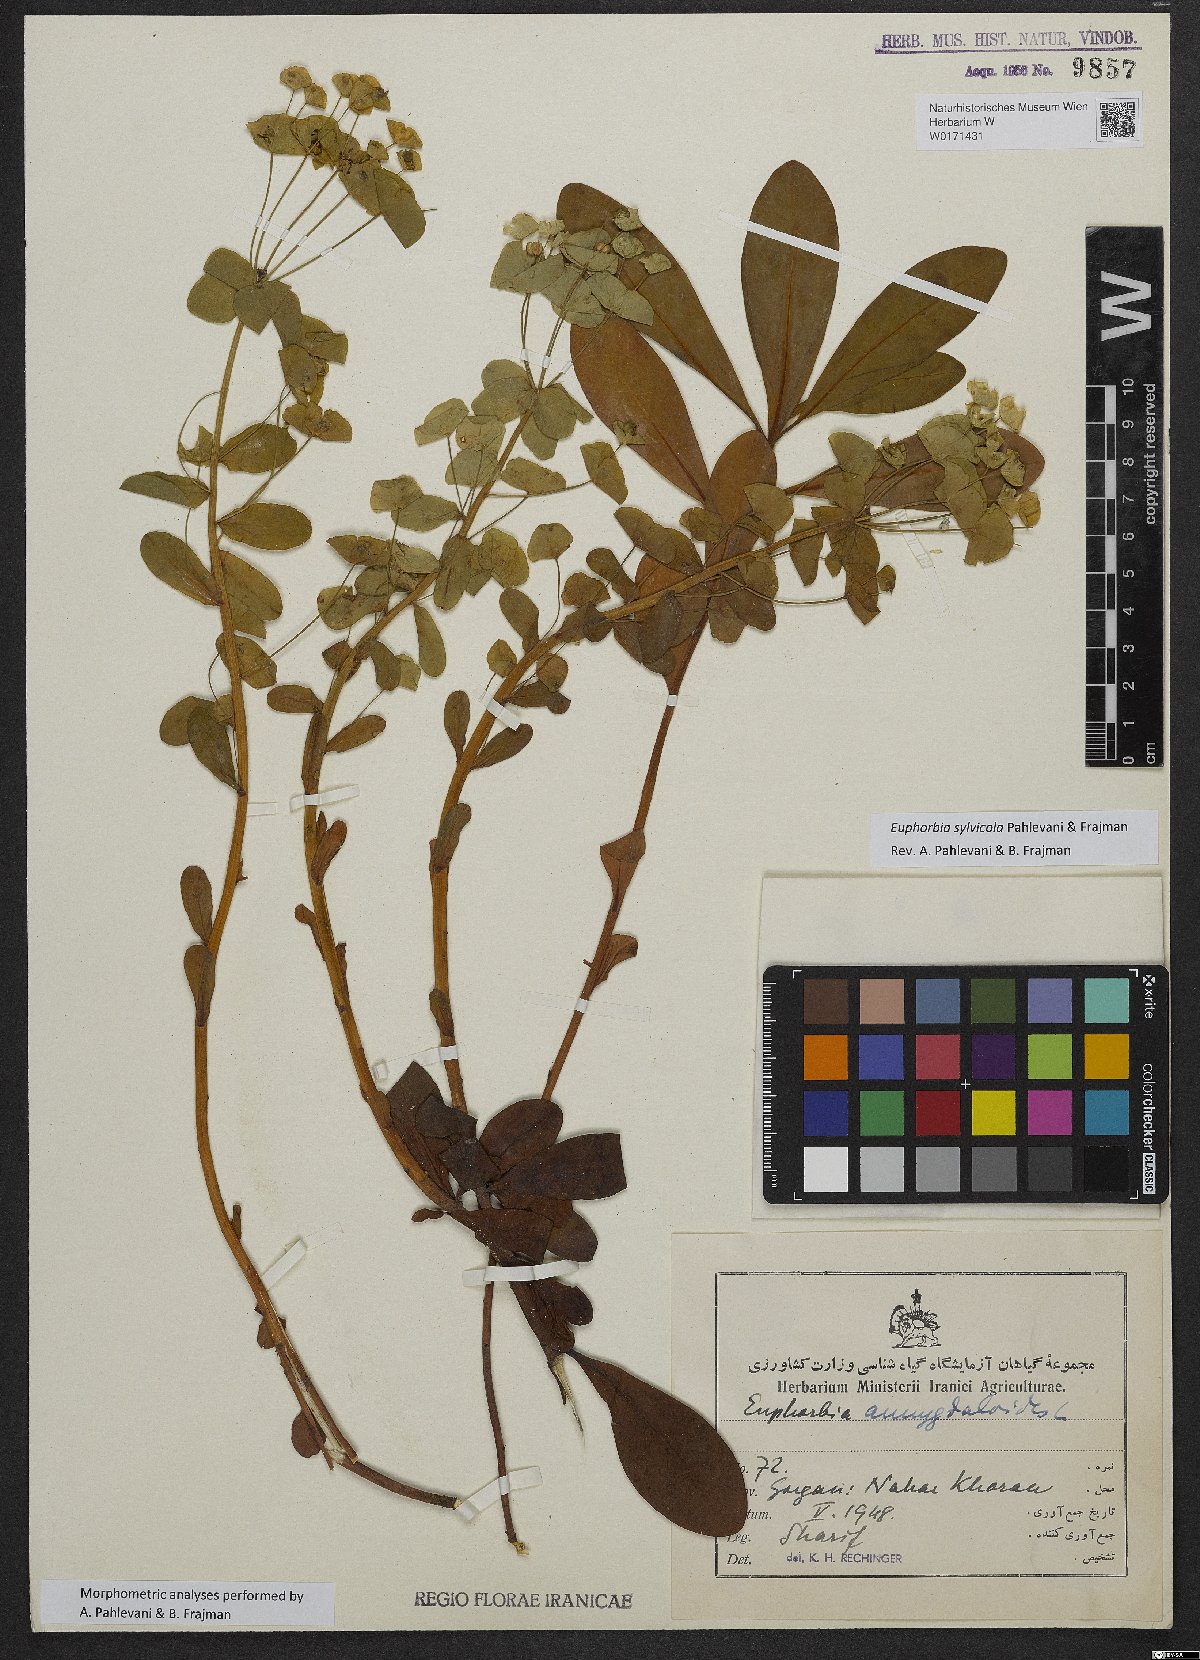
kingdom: Plantae
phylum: Tracheophyta
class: Magnoliopsida
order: Malpighiales
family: Euphorbiaceae
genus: Euphorbia
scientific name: Euphorbia juttae
